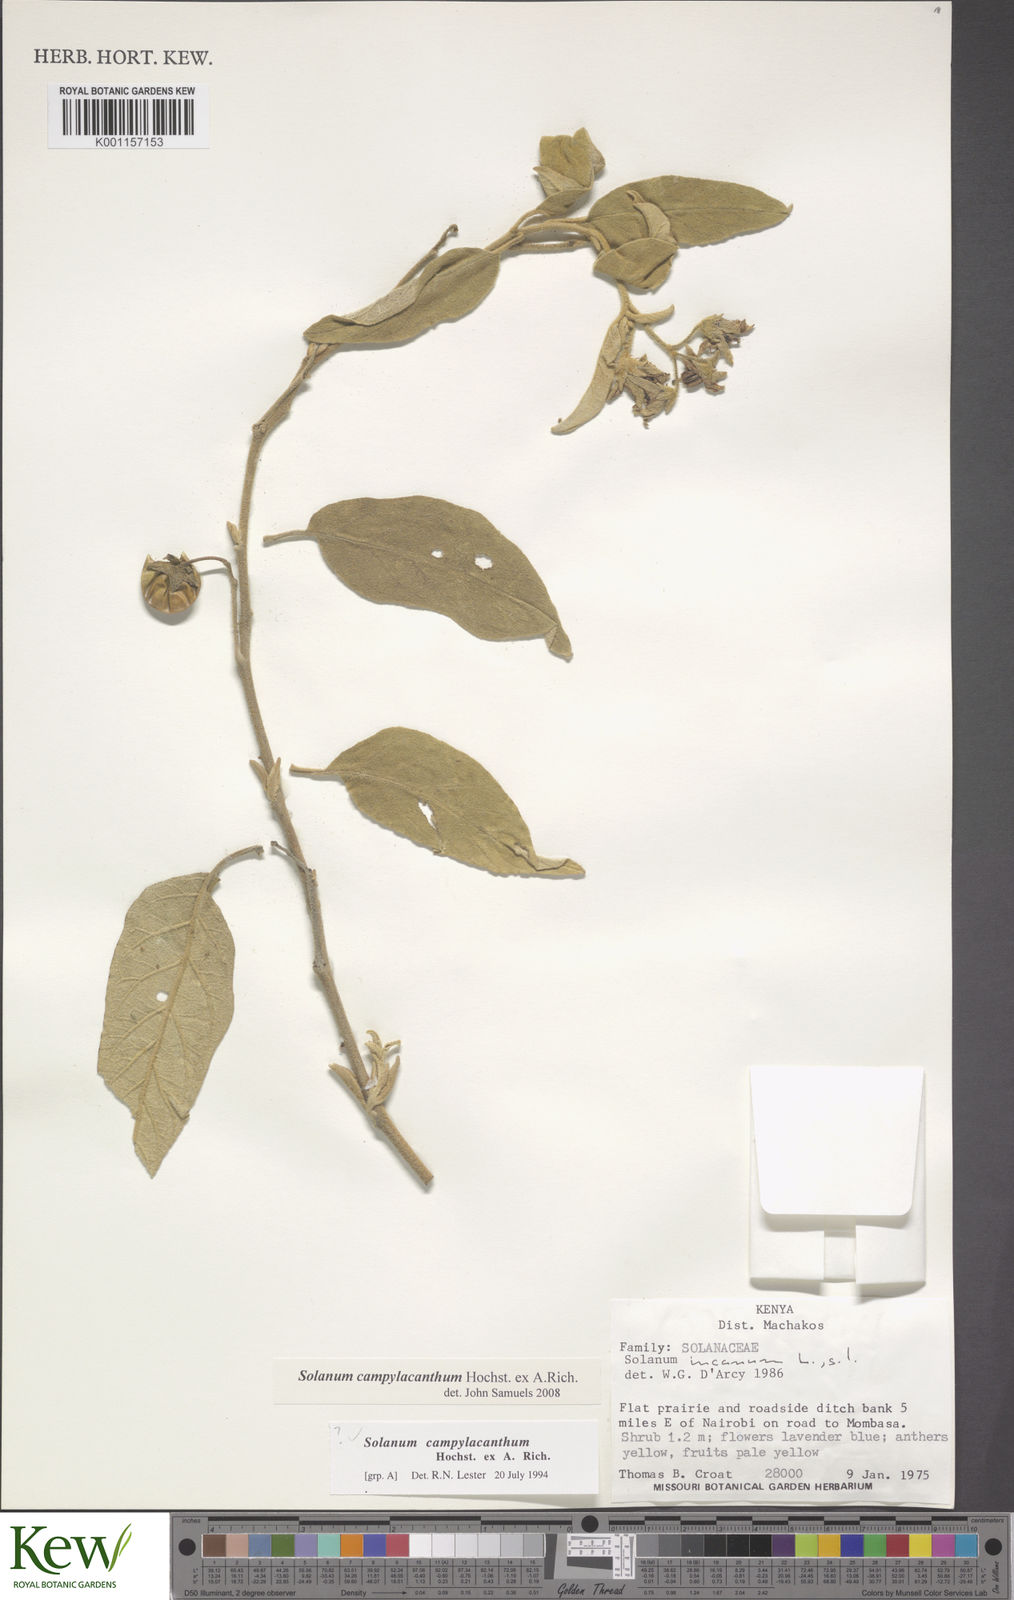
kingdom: Plantae
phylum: Tracheophyta
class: Magnoliopsida
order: Solanales
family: Solanaceae
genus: Solanum
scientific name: Solanum campylacanthum
